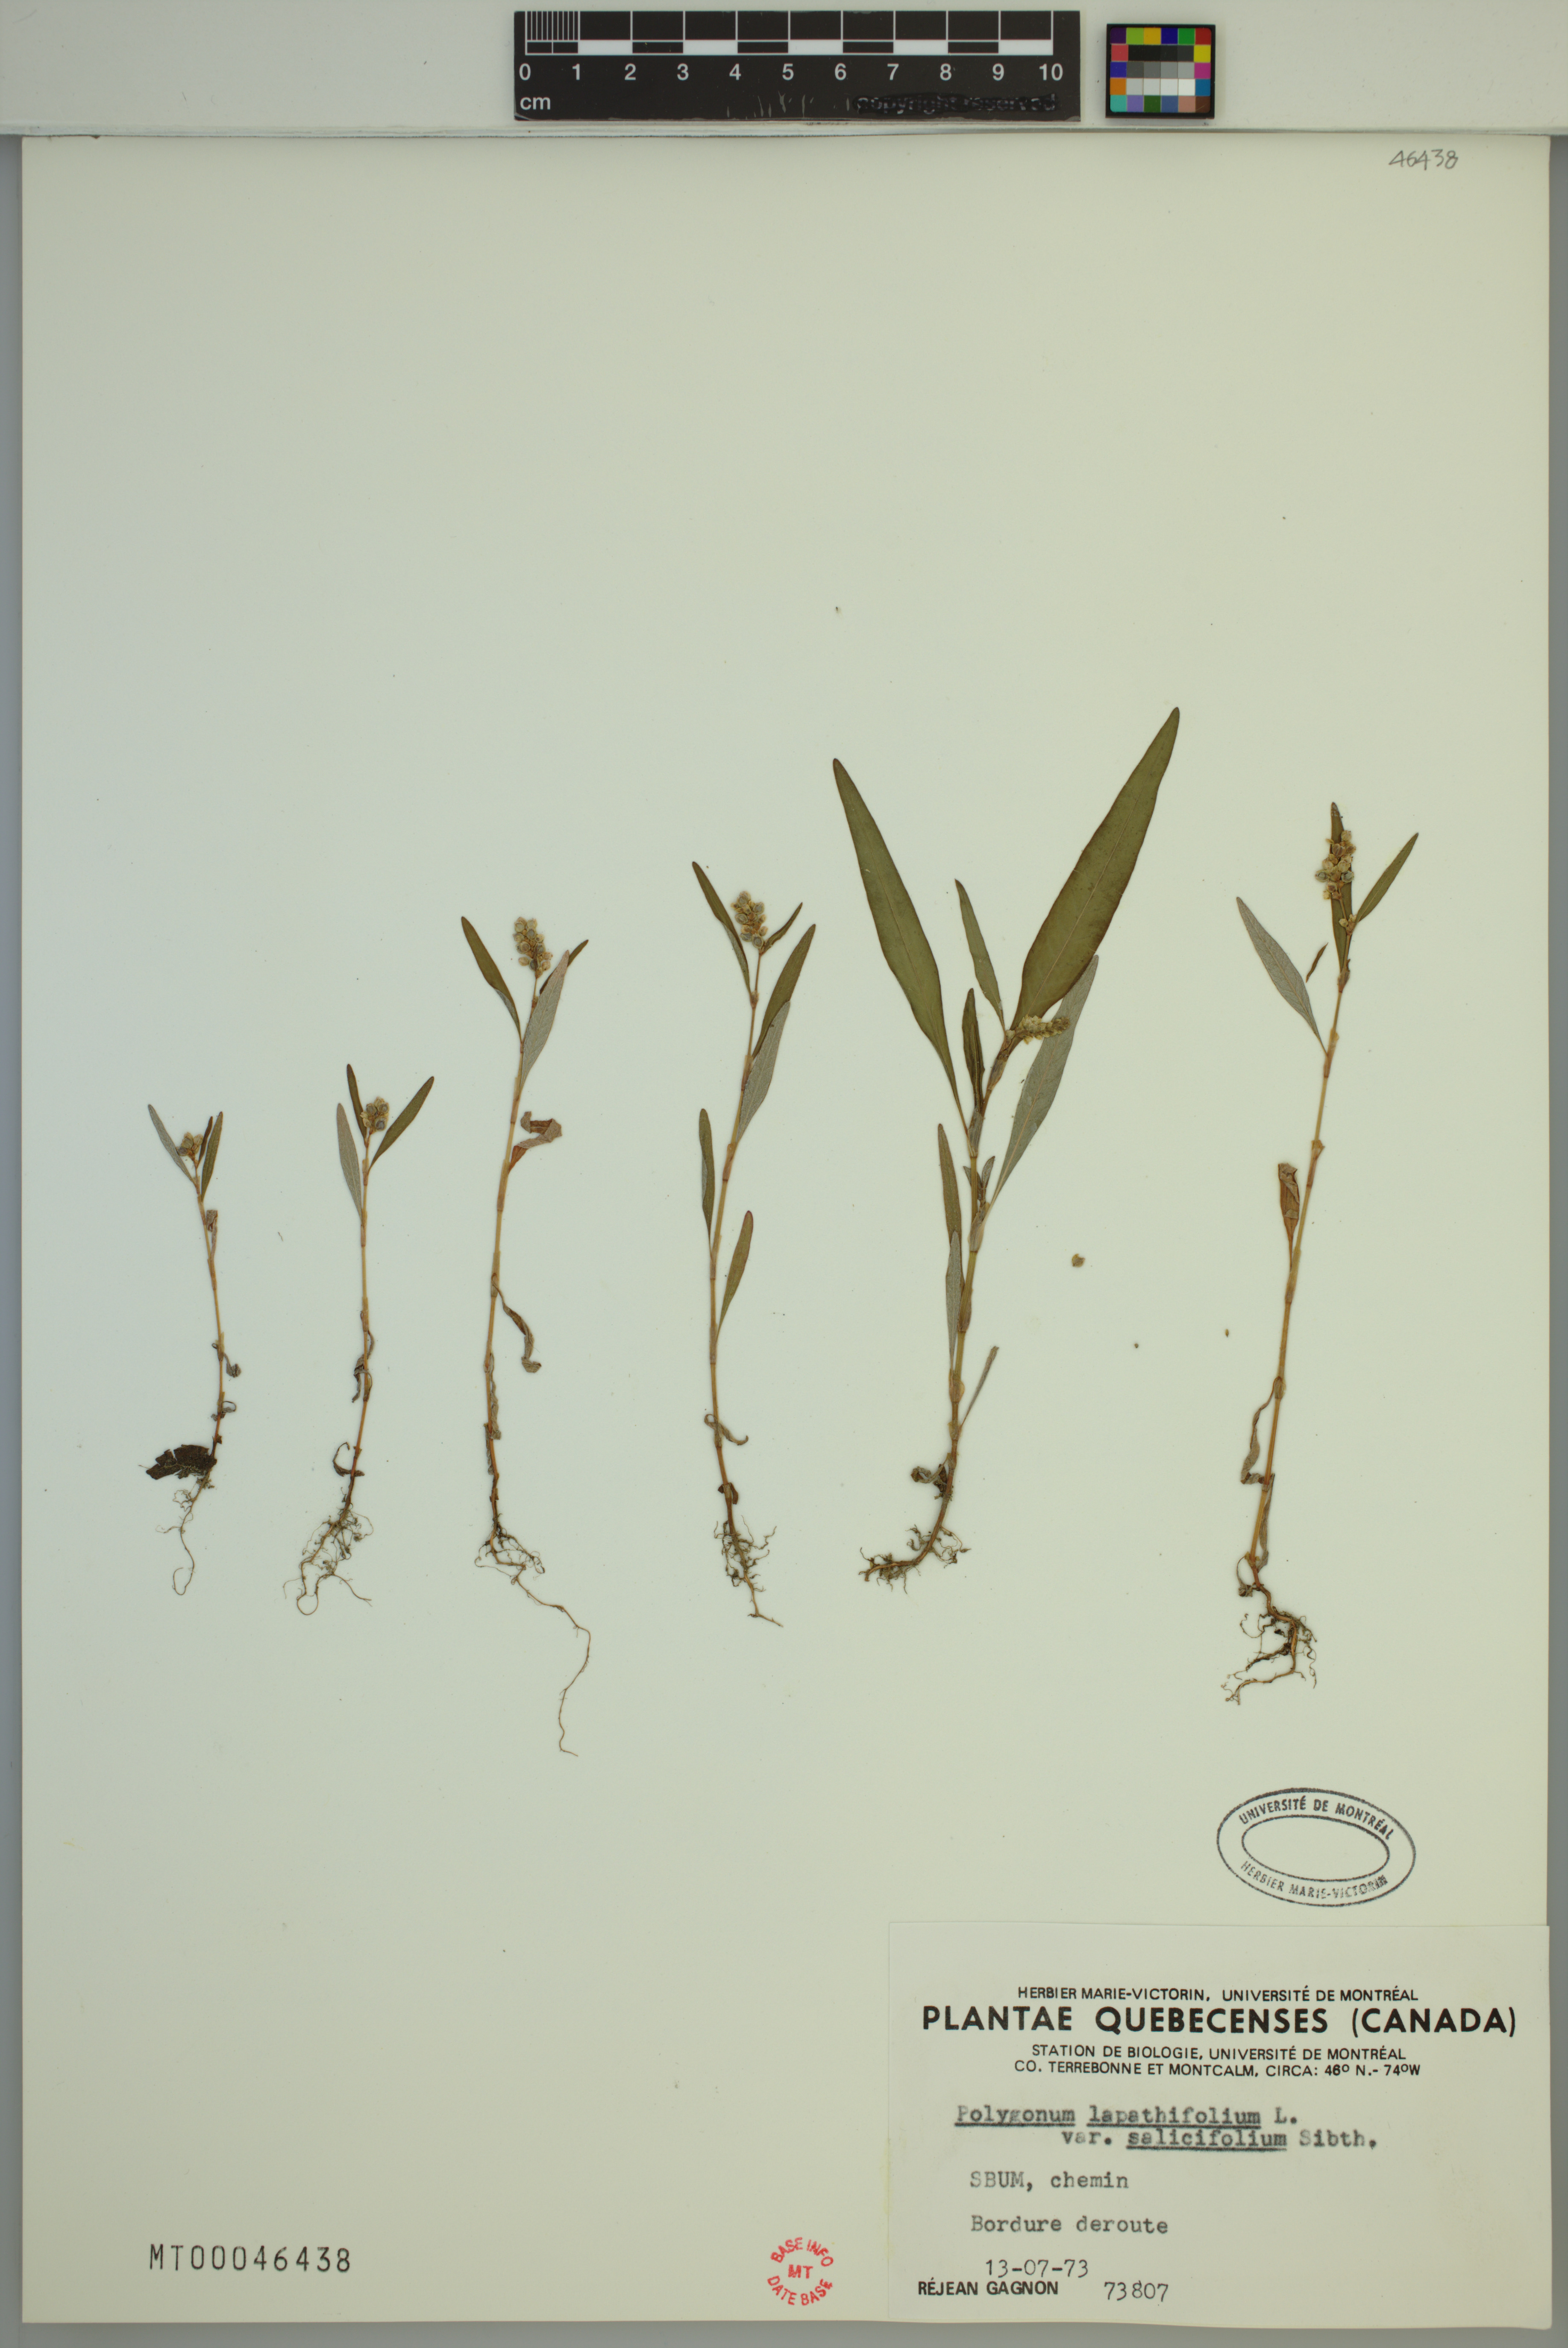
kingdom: Plantae
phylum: Tracheophyta
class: Magnoliopsida
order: Caryophyllales
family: Polygonaceae
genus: Persicaria
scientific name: Persicaria lapathifolia
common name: Curlytop knotweed
